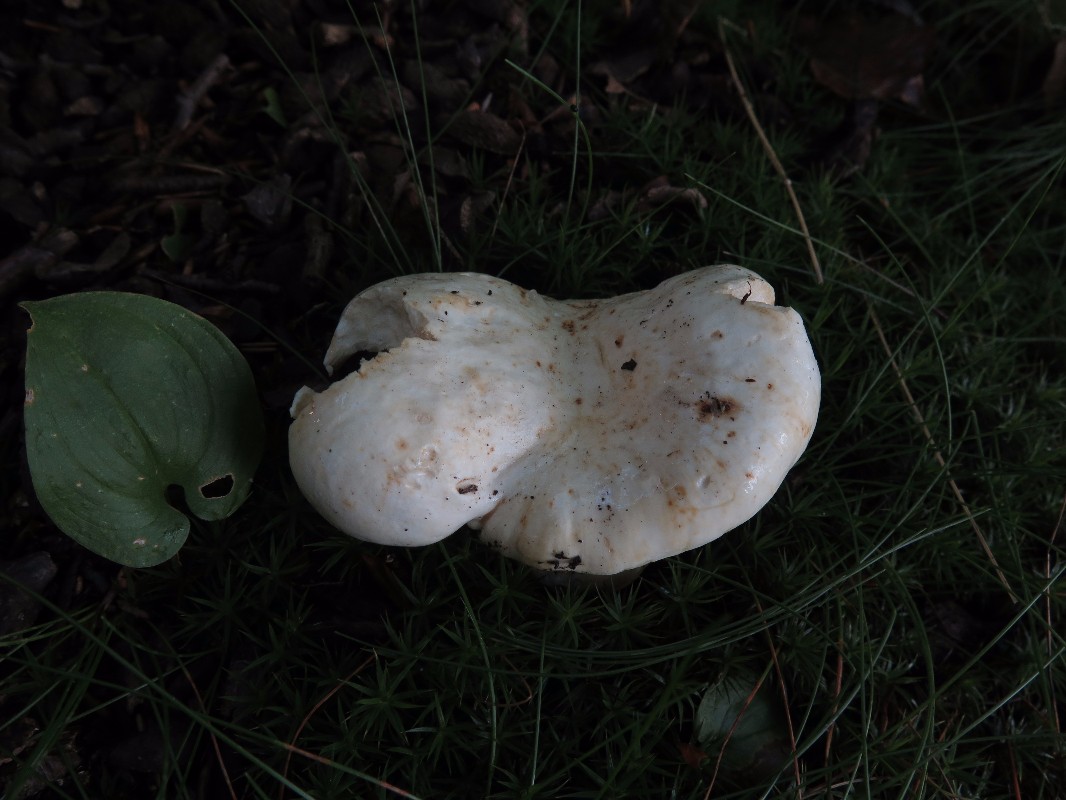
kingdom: Fungi
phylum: Basidiomycota
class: Agaricomycetes
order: Russulales
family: Russulaceae
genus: Lactifluus
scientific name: Lactifluus piperatus
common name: peber-mælkehat
